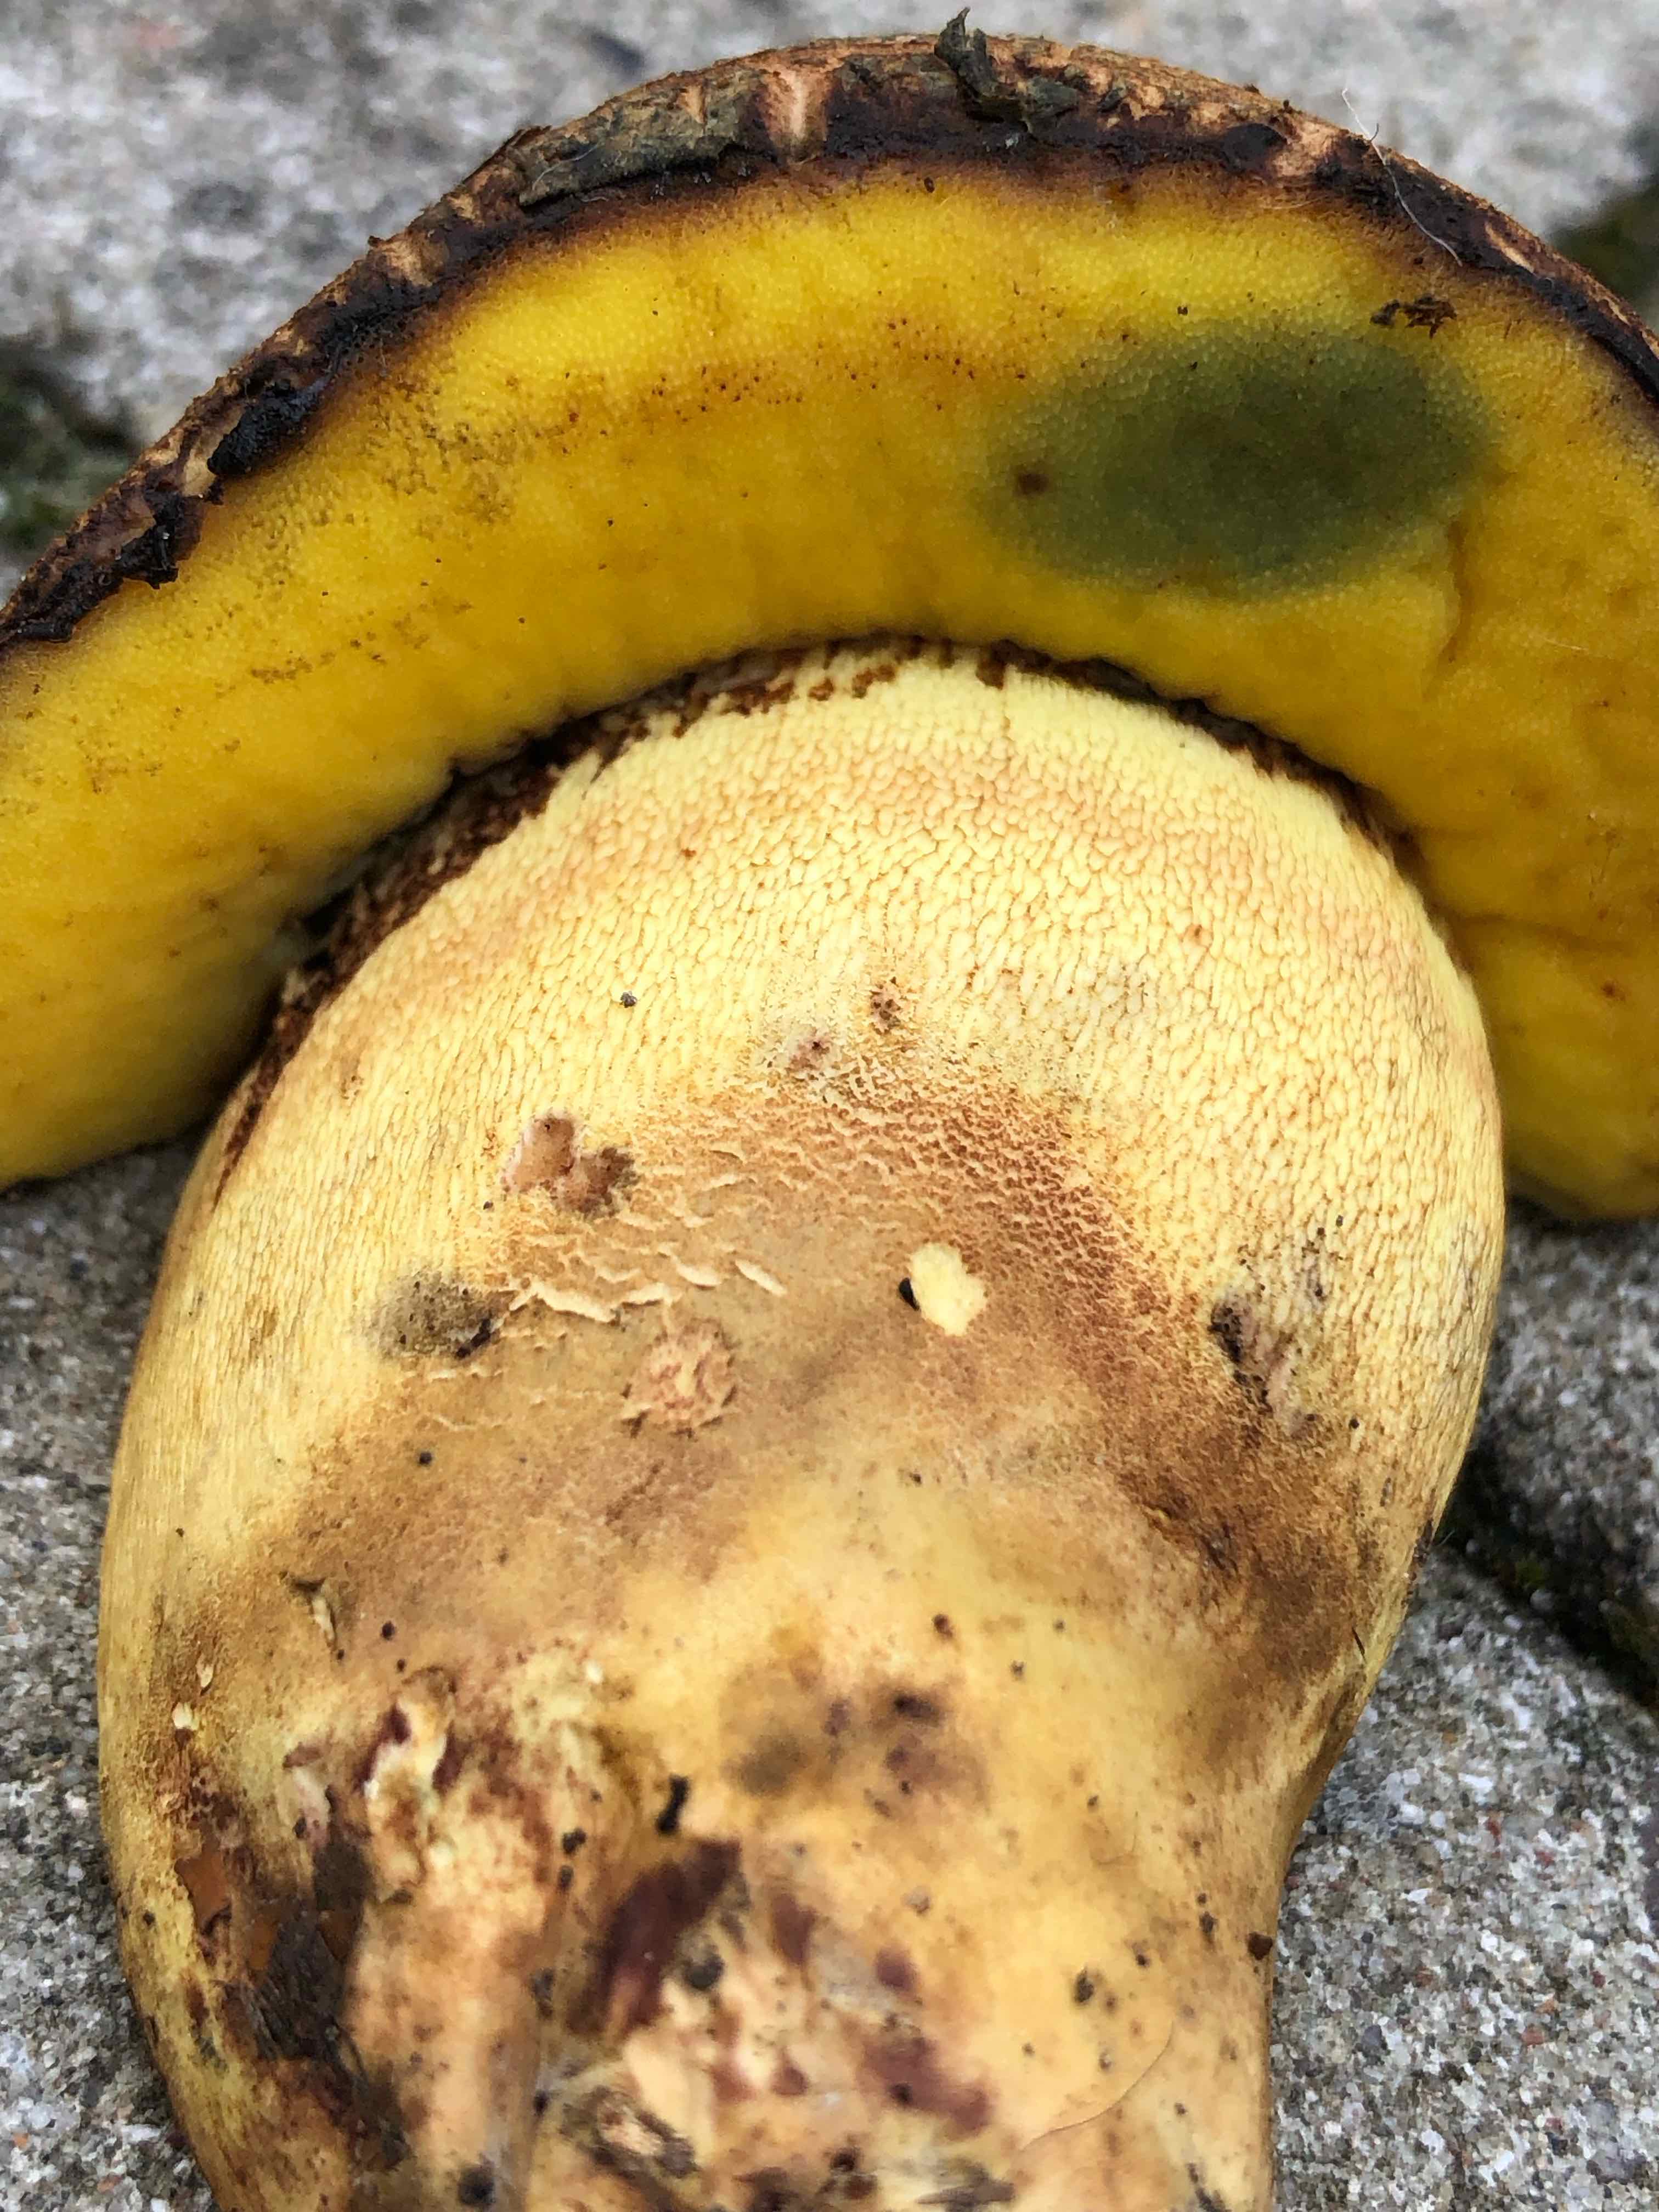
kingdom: Fungi
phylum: Basidiomycota
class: Agaricomycetes
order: Boletales
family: Boletaceae
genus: Butyriboletus
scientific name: Butyriboletus appendiculatus
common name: tenstokket rørhat
